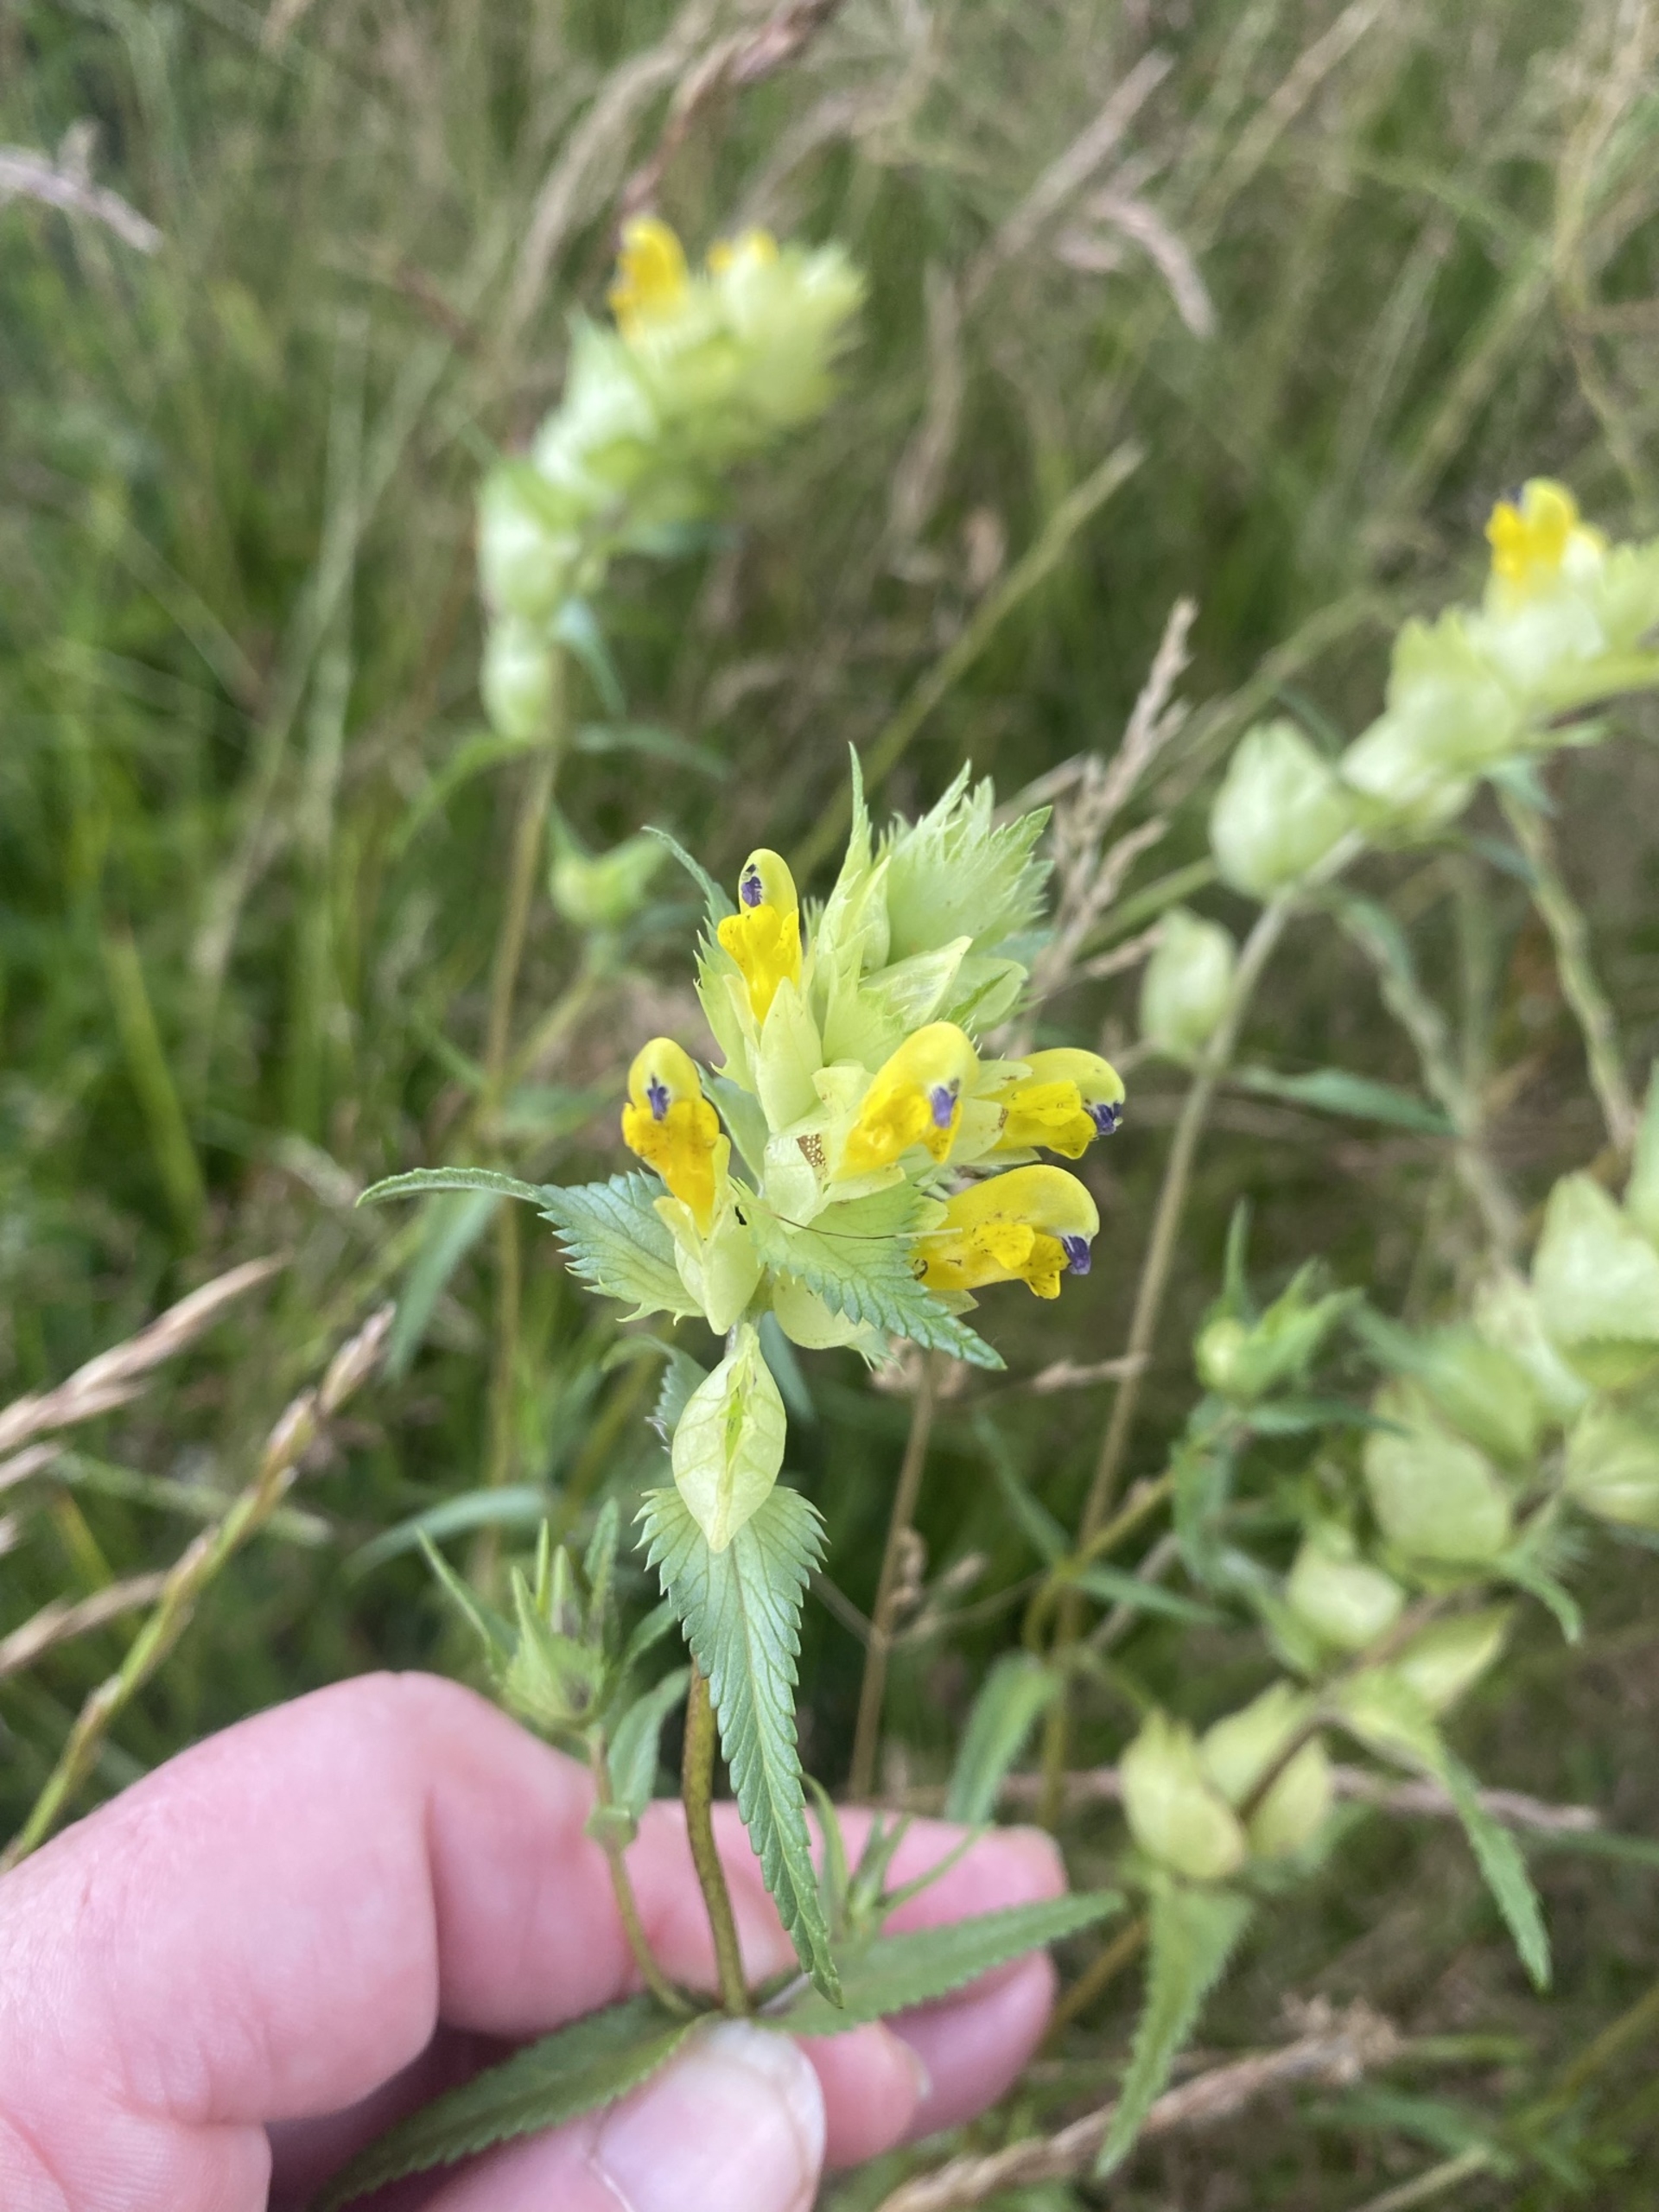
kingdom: Plantae
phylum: Tracheophyta
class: Magnoliopsida
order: Lamiales
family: Orobanchaceae
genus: Rhinanthus
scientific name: Rhinanthus
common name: Stor skjaller
